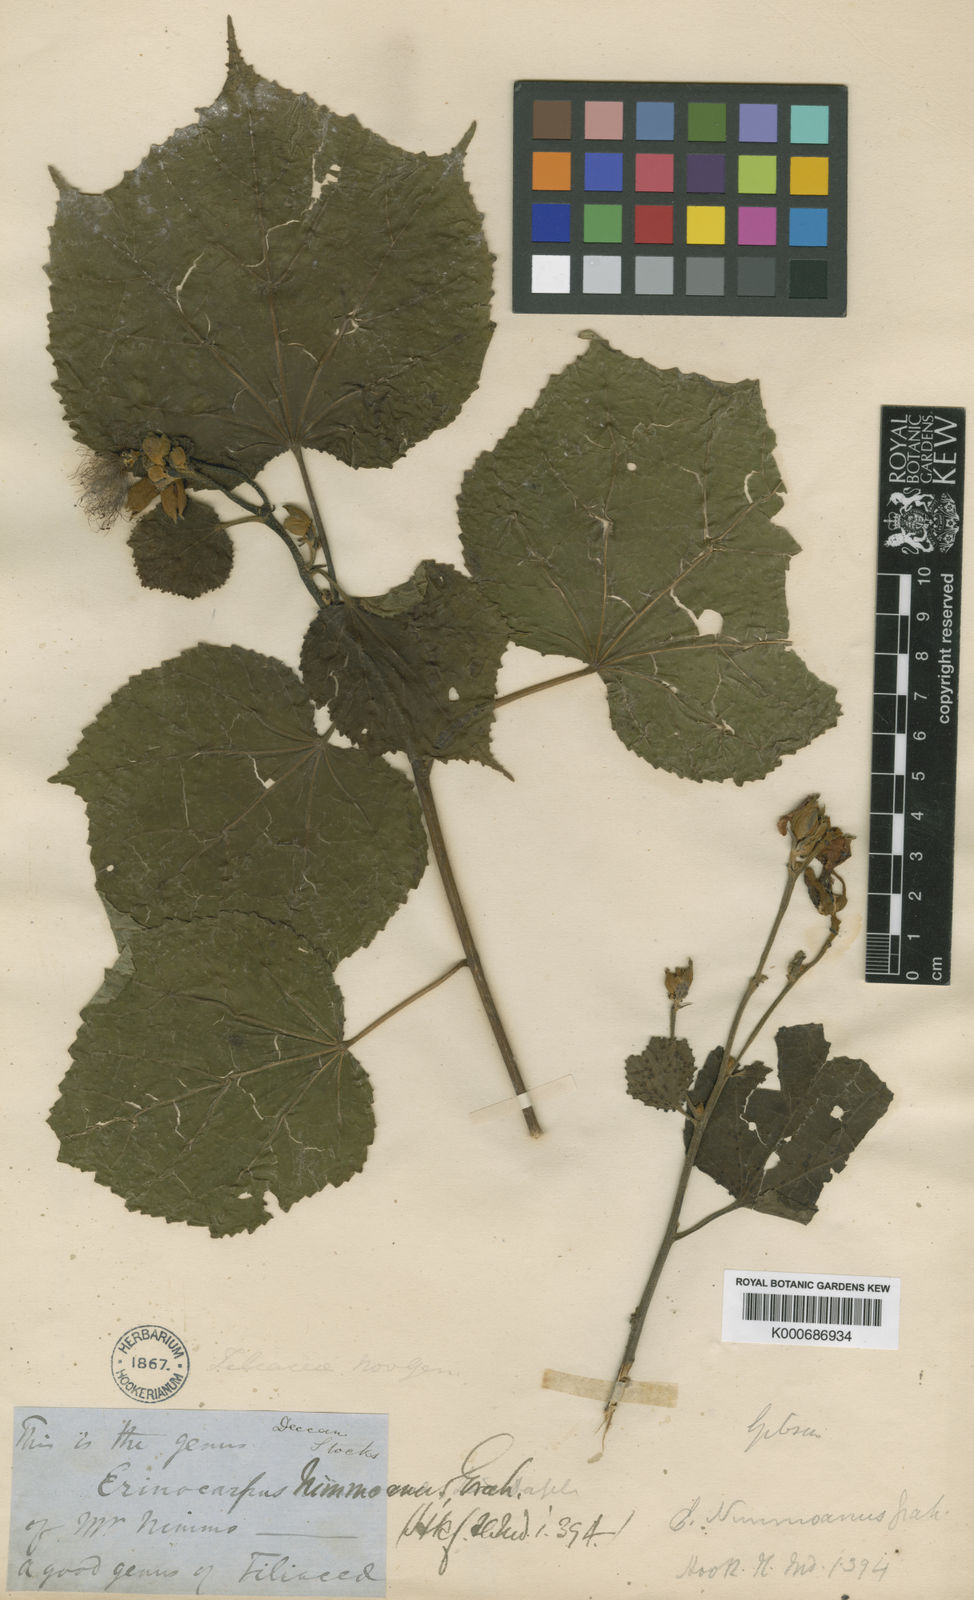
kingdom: Plantae
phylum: Tracheophyta
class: Magnoliopsida
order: Malvales
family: Malvaceae
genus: Erinocarpus
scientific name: Erinocarpus nimmonii
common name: Nimmo's erinocarpus
